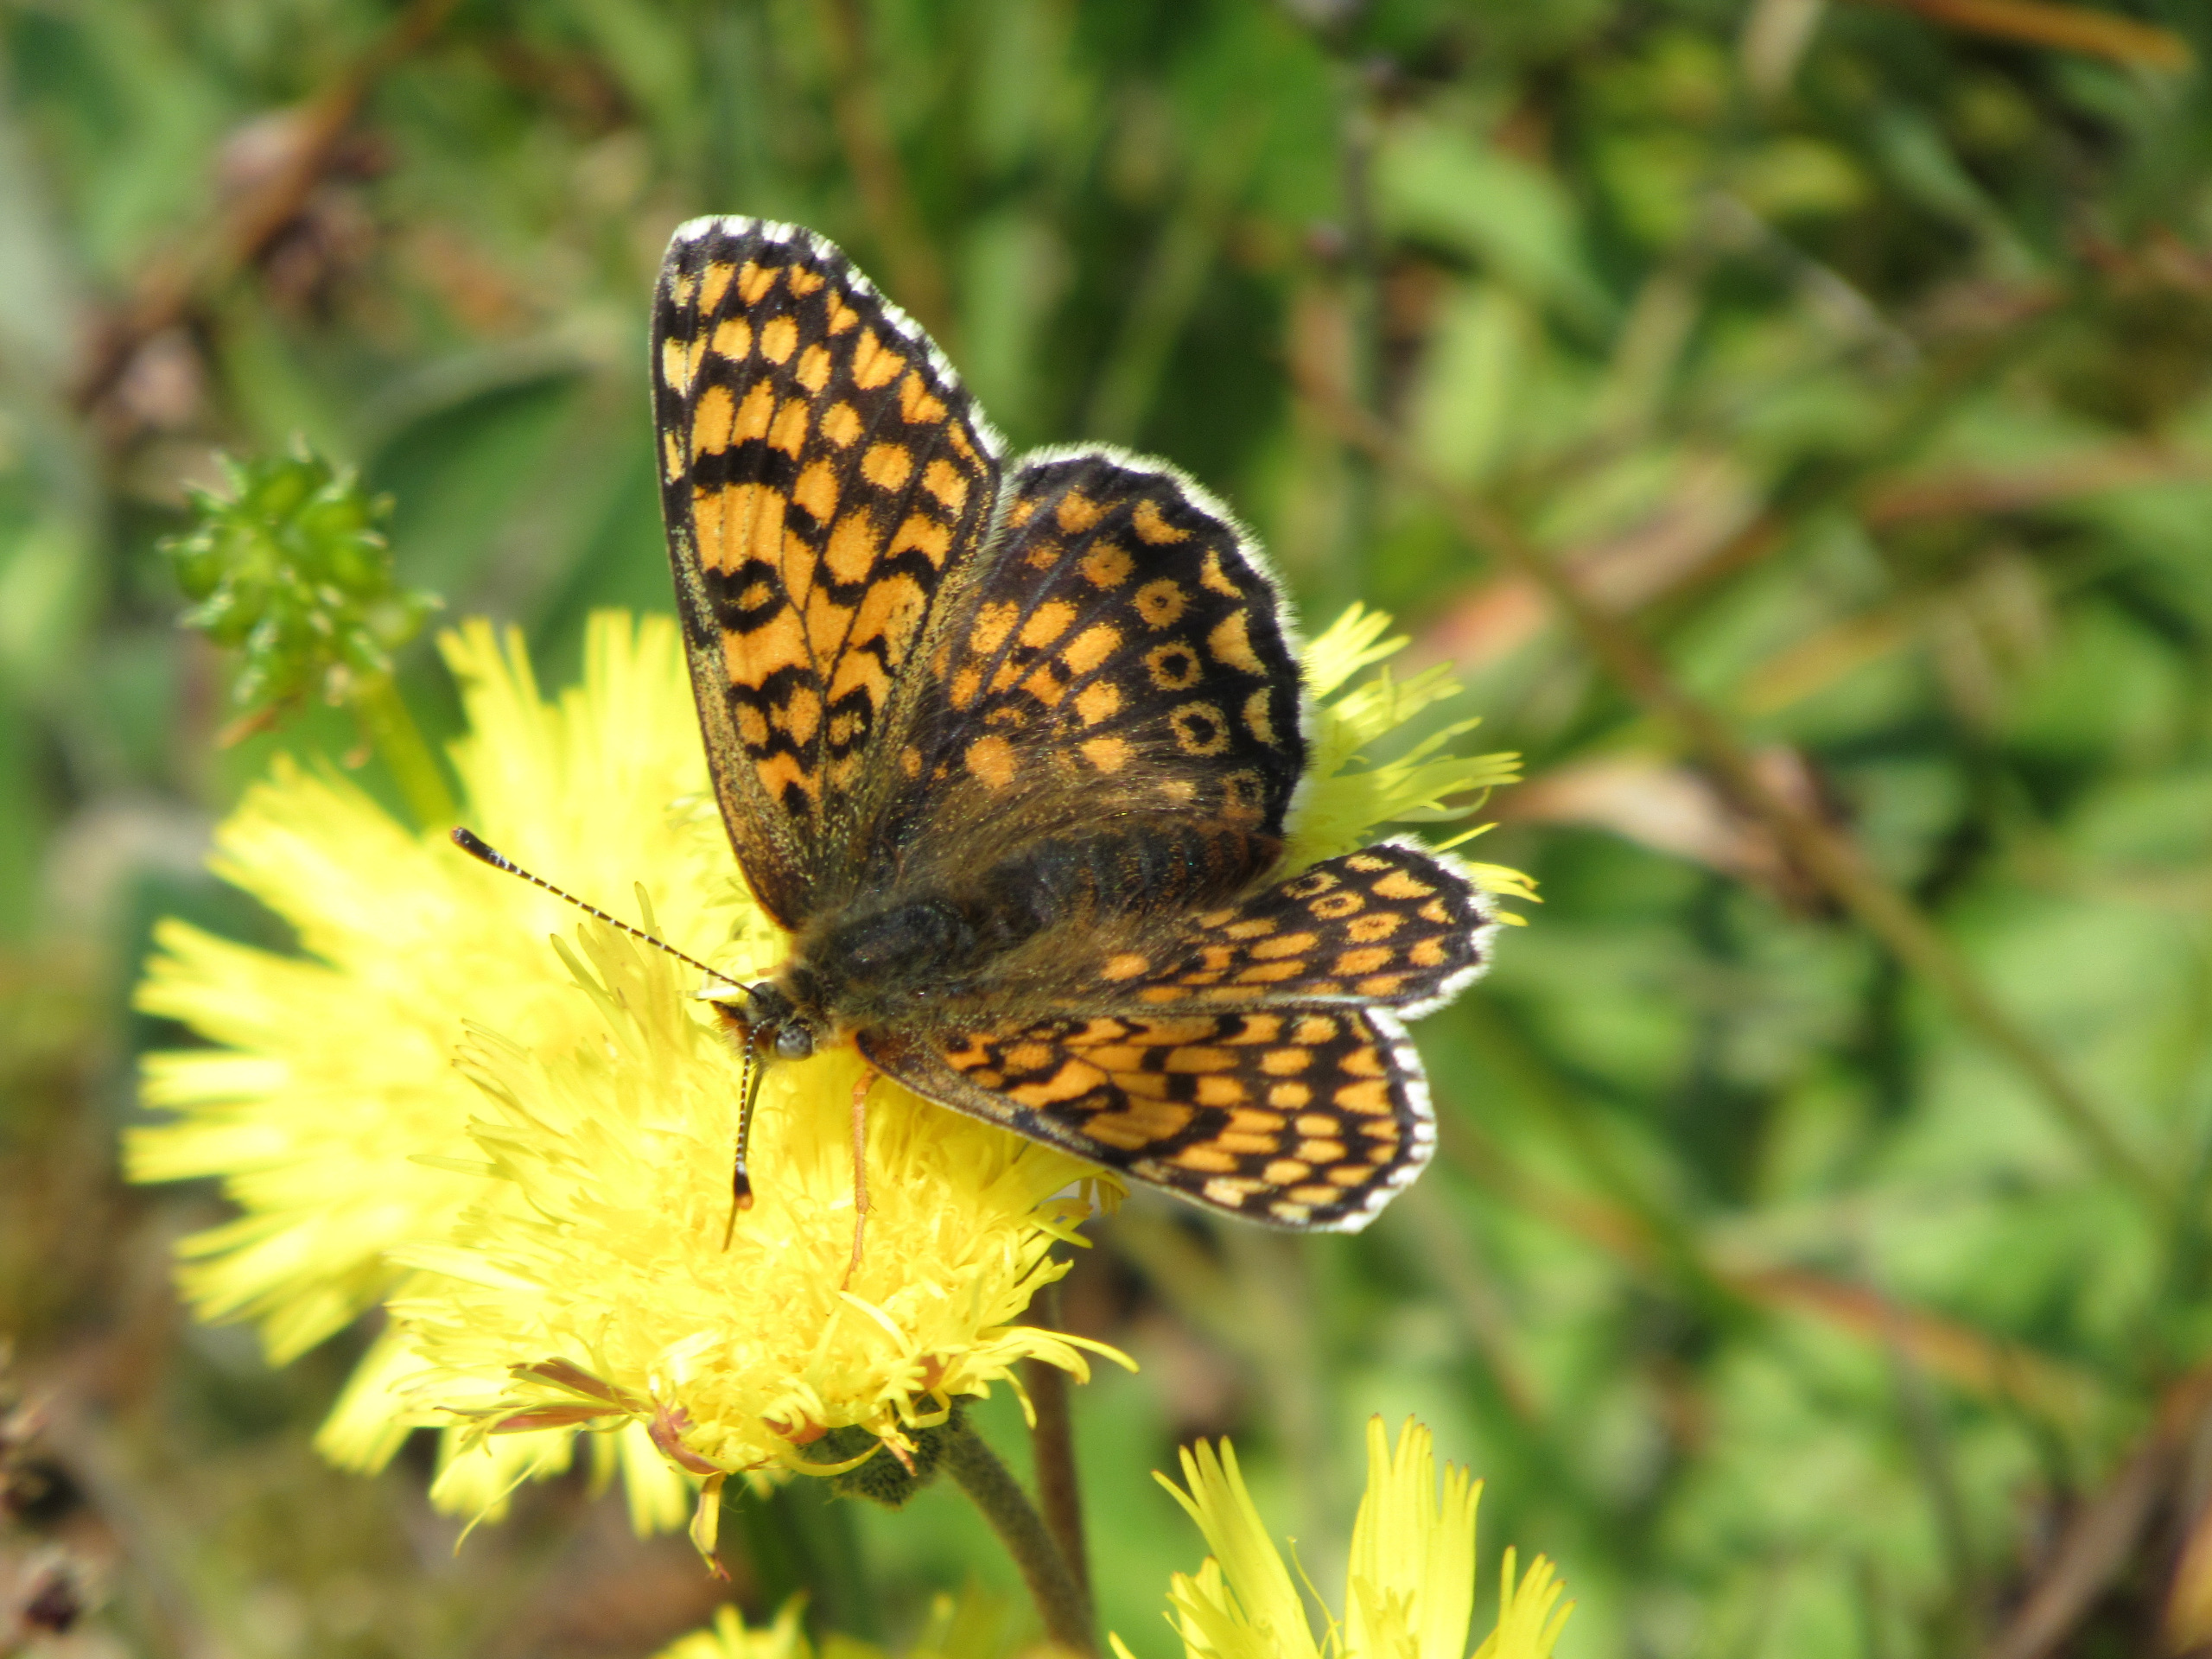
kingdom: Animalia
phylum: Arthropoda
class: Insecta
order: Lepidoptera
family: Nymphalidae
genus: Melitaea
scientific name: Melitaea cinxia
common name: Okkergul pletvinge
